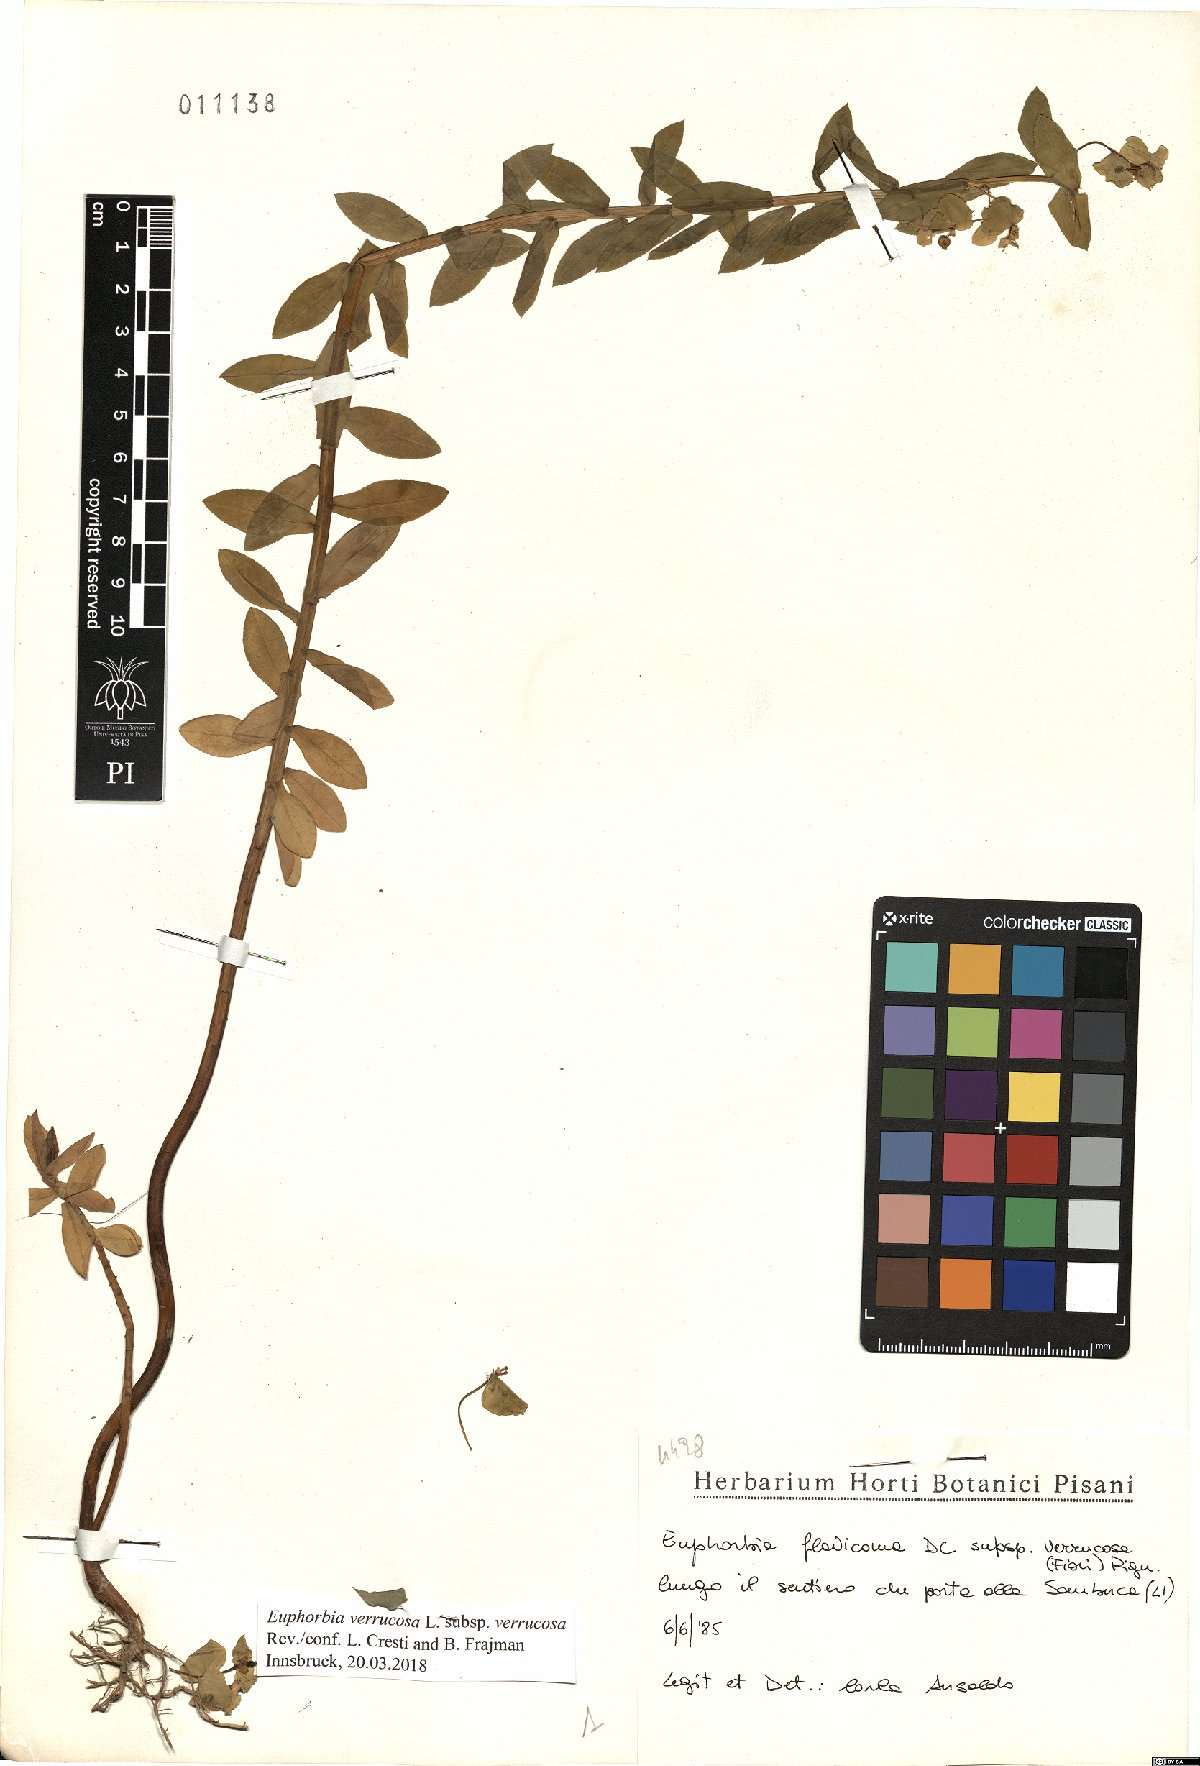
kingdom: Plantae
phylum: Tracheophyta
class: Magnoliopsida
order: Malpighiales
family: Euphorbiaceae
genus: Euphorbia
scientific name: Euphorbia verrucosa
